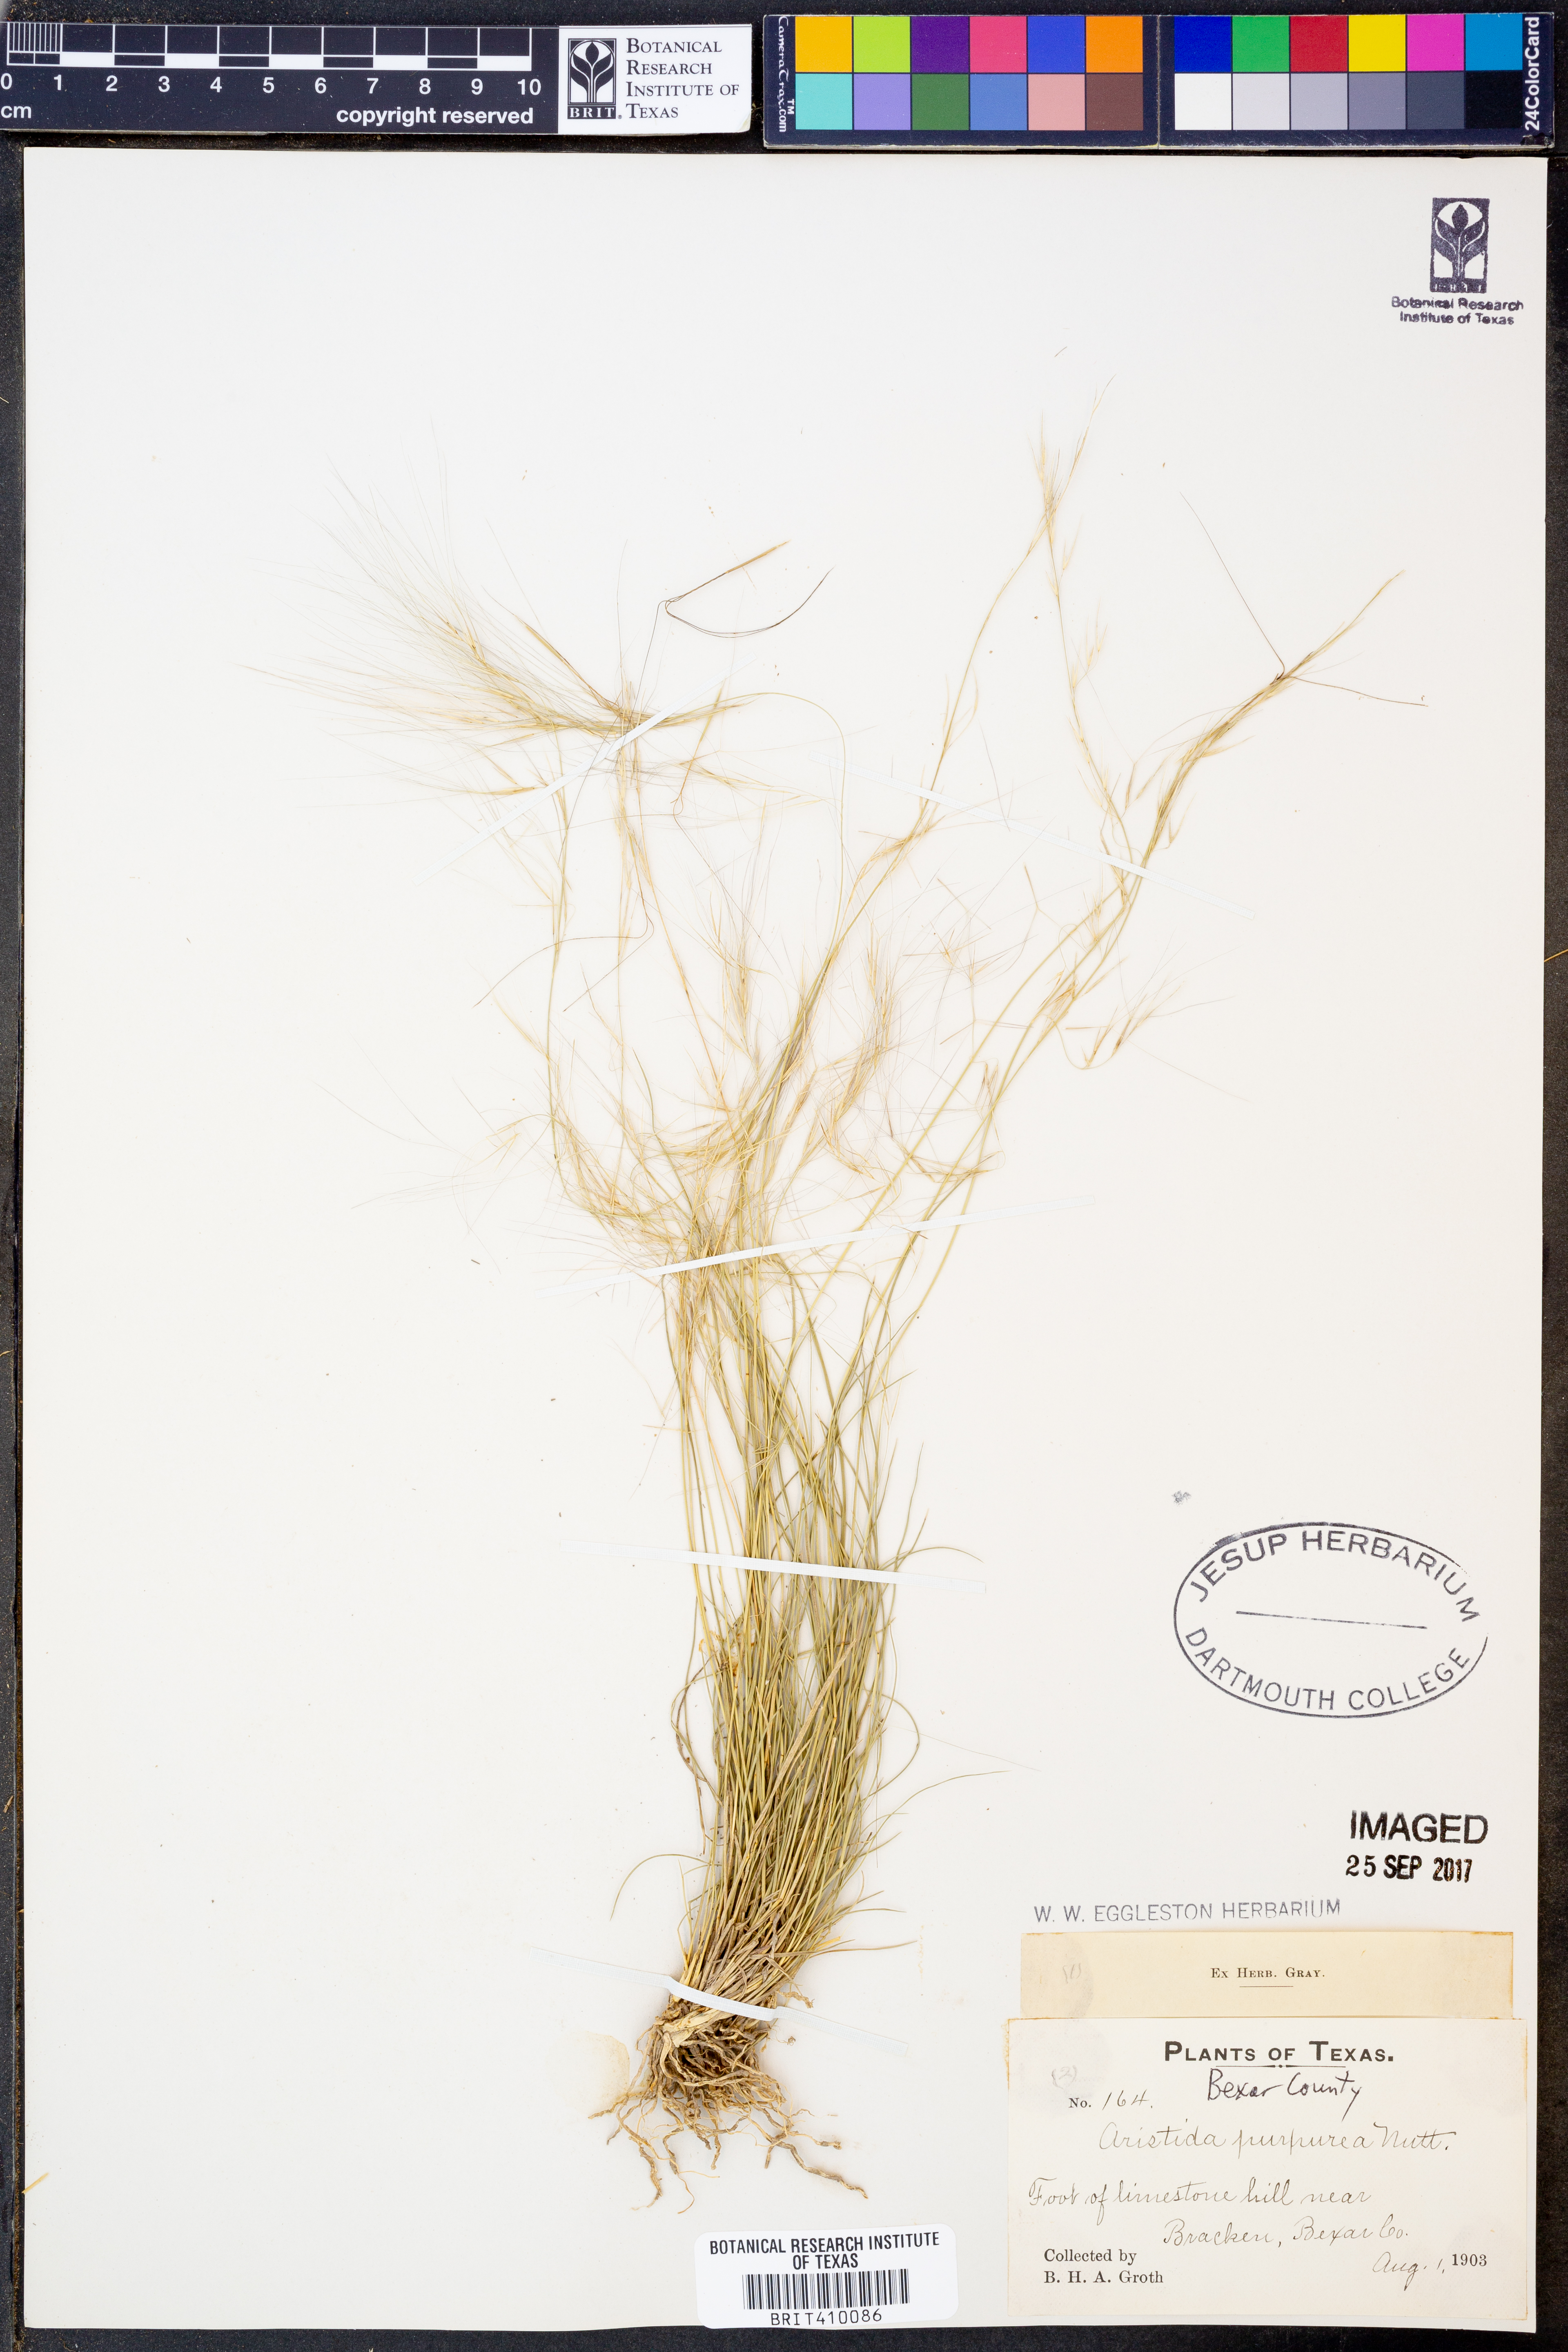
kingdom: Plantae
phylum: Tracheophyta
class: Liliopsida
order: Poales
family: Poaceae
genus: Aristida
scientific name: Aristida purpurea
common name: Purple threeawn
